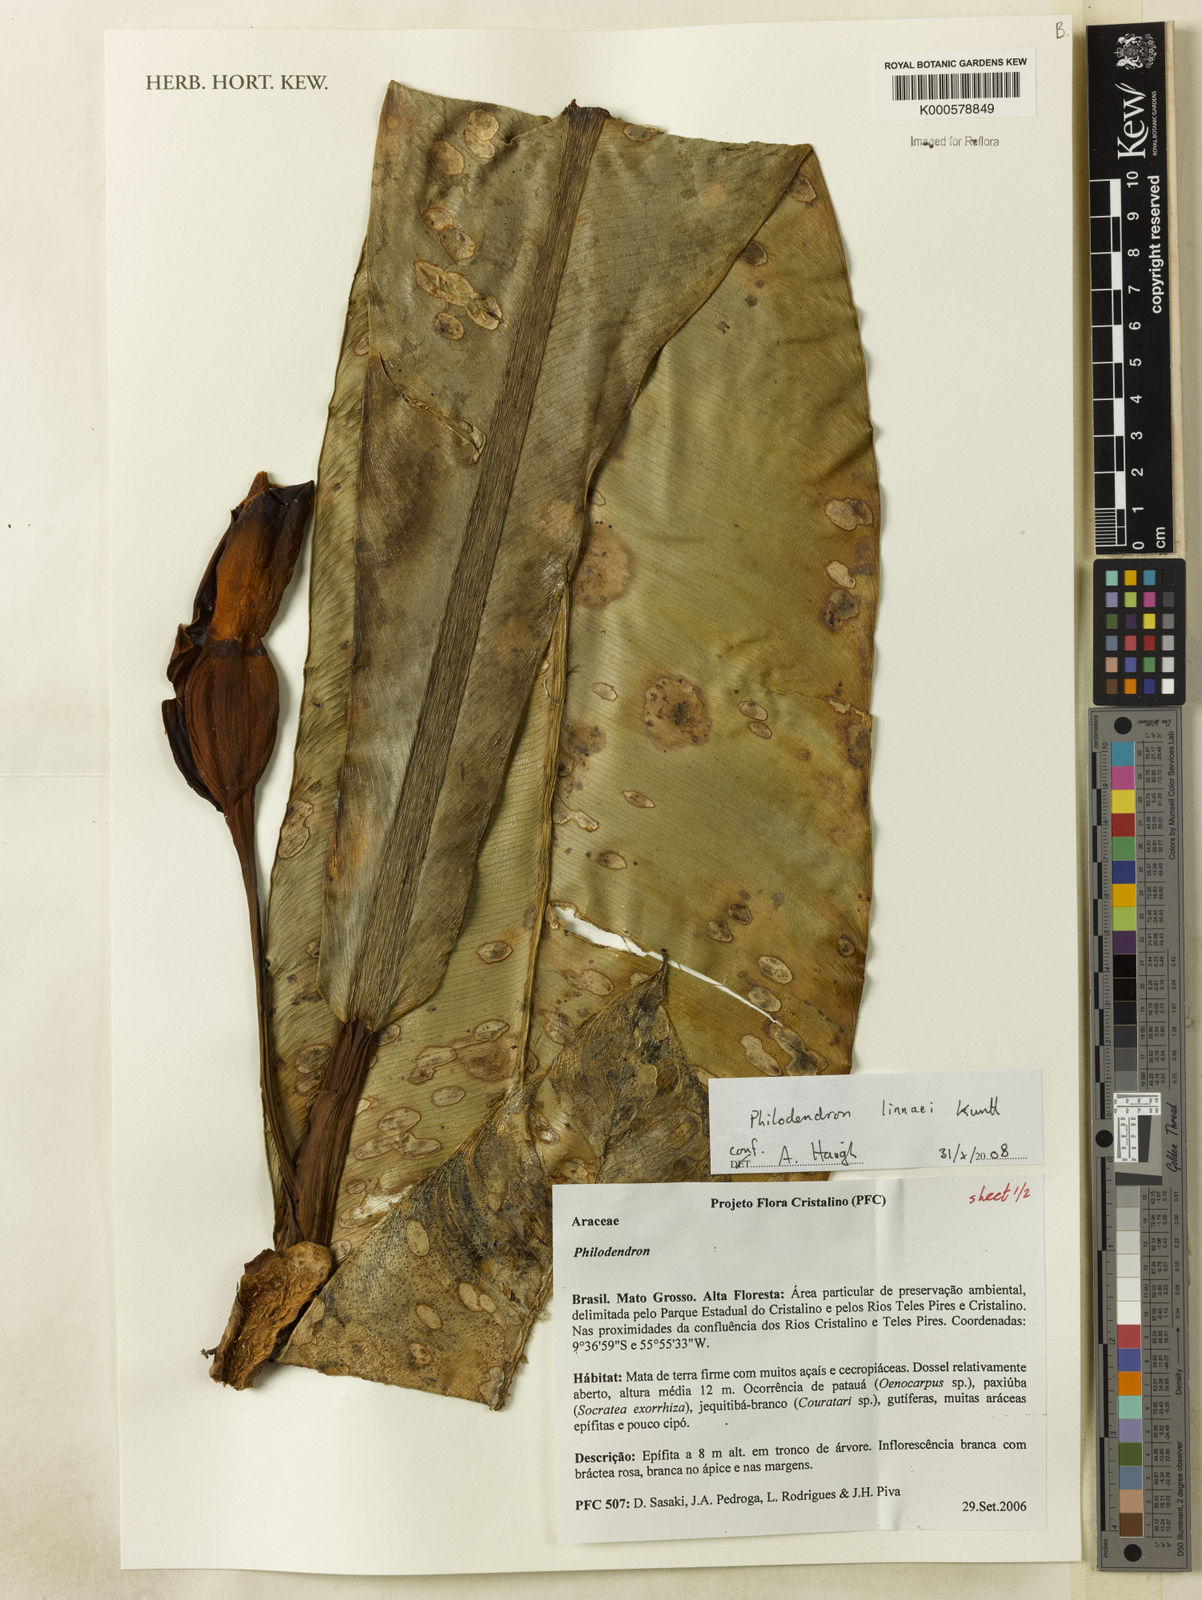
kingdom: Plantae
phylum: Tracheophyta
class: Liliopsida
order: Alismatales
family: Araceae
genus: Philodendron
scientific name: Philodendron linnaei
